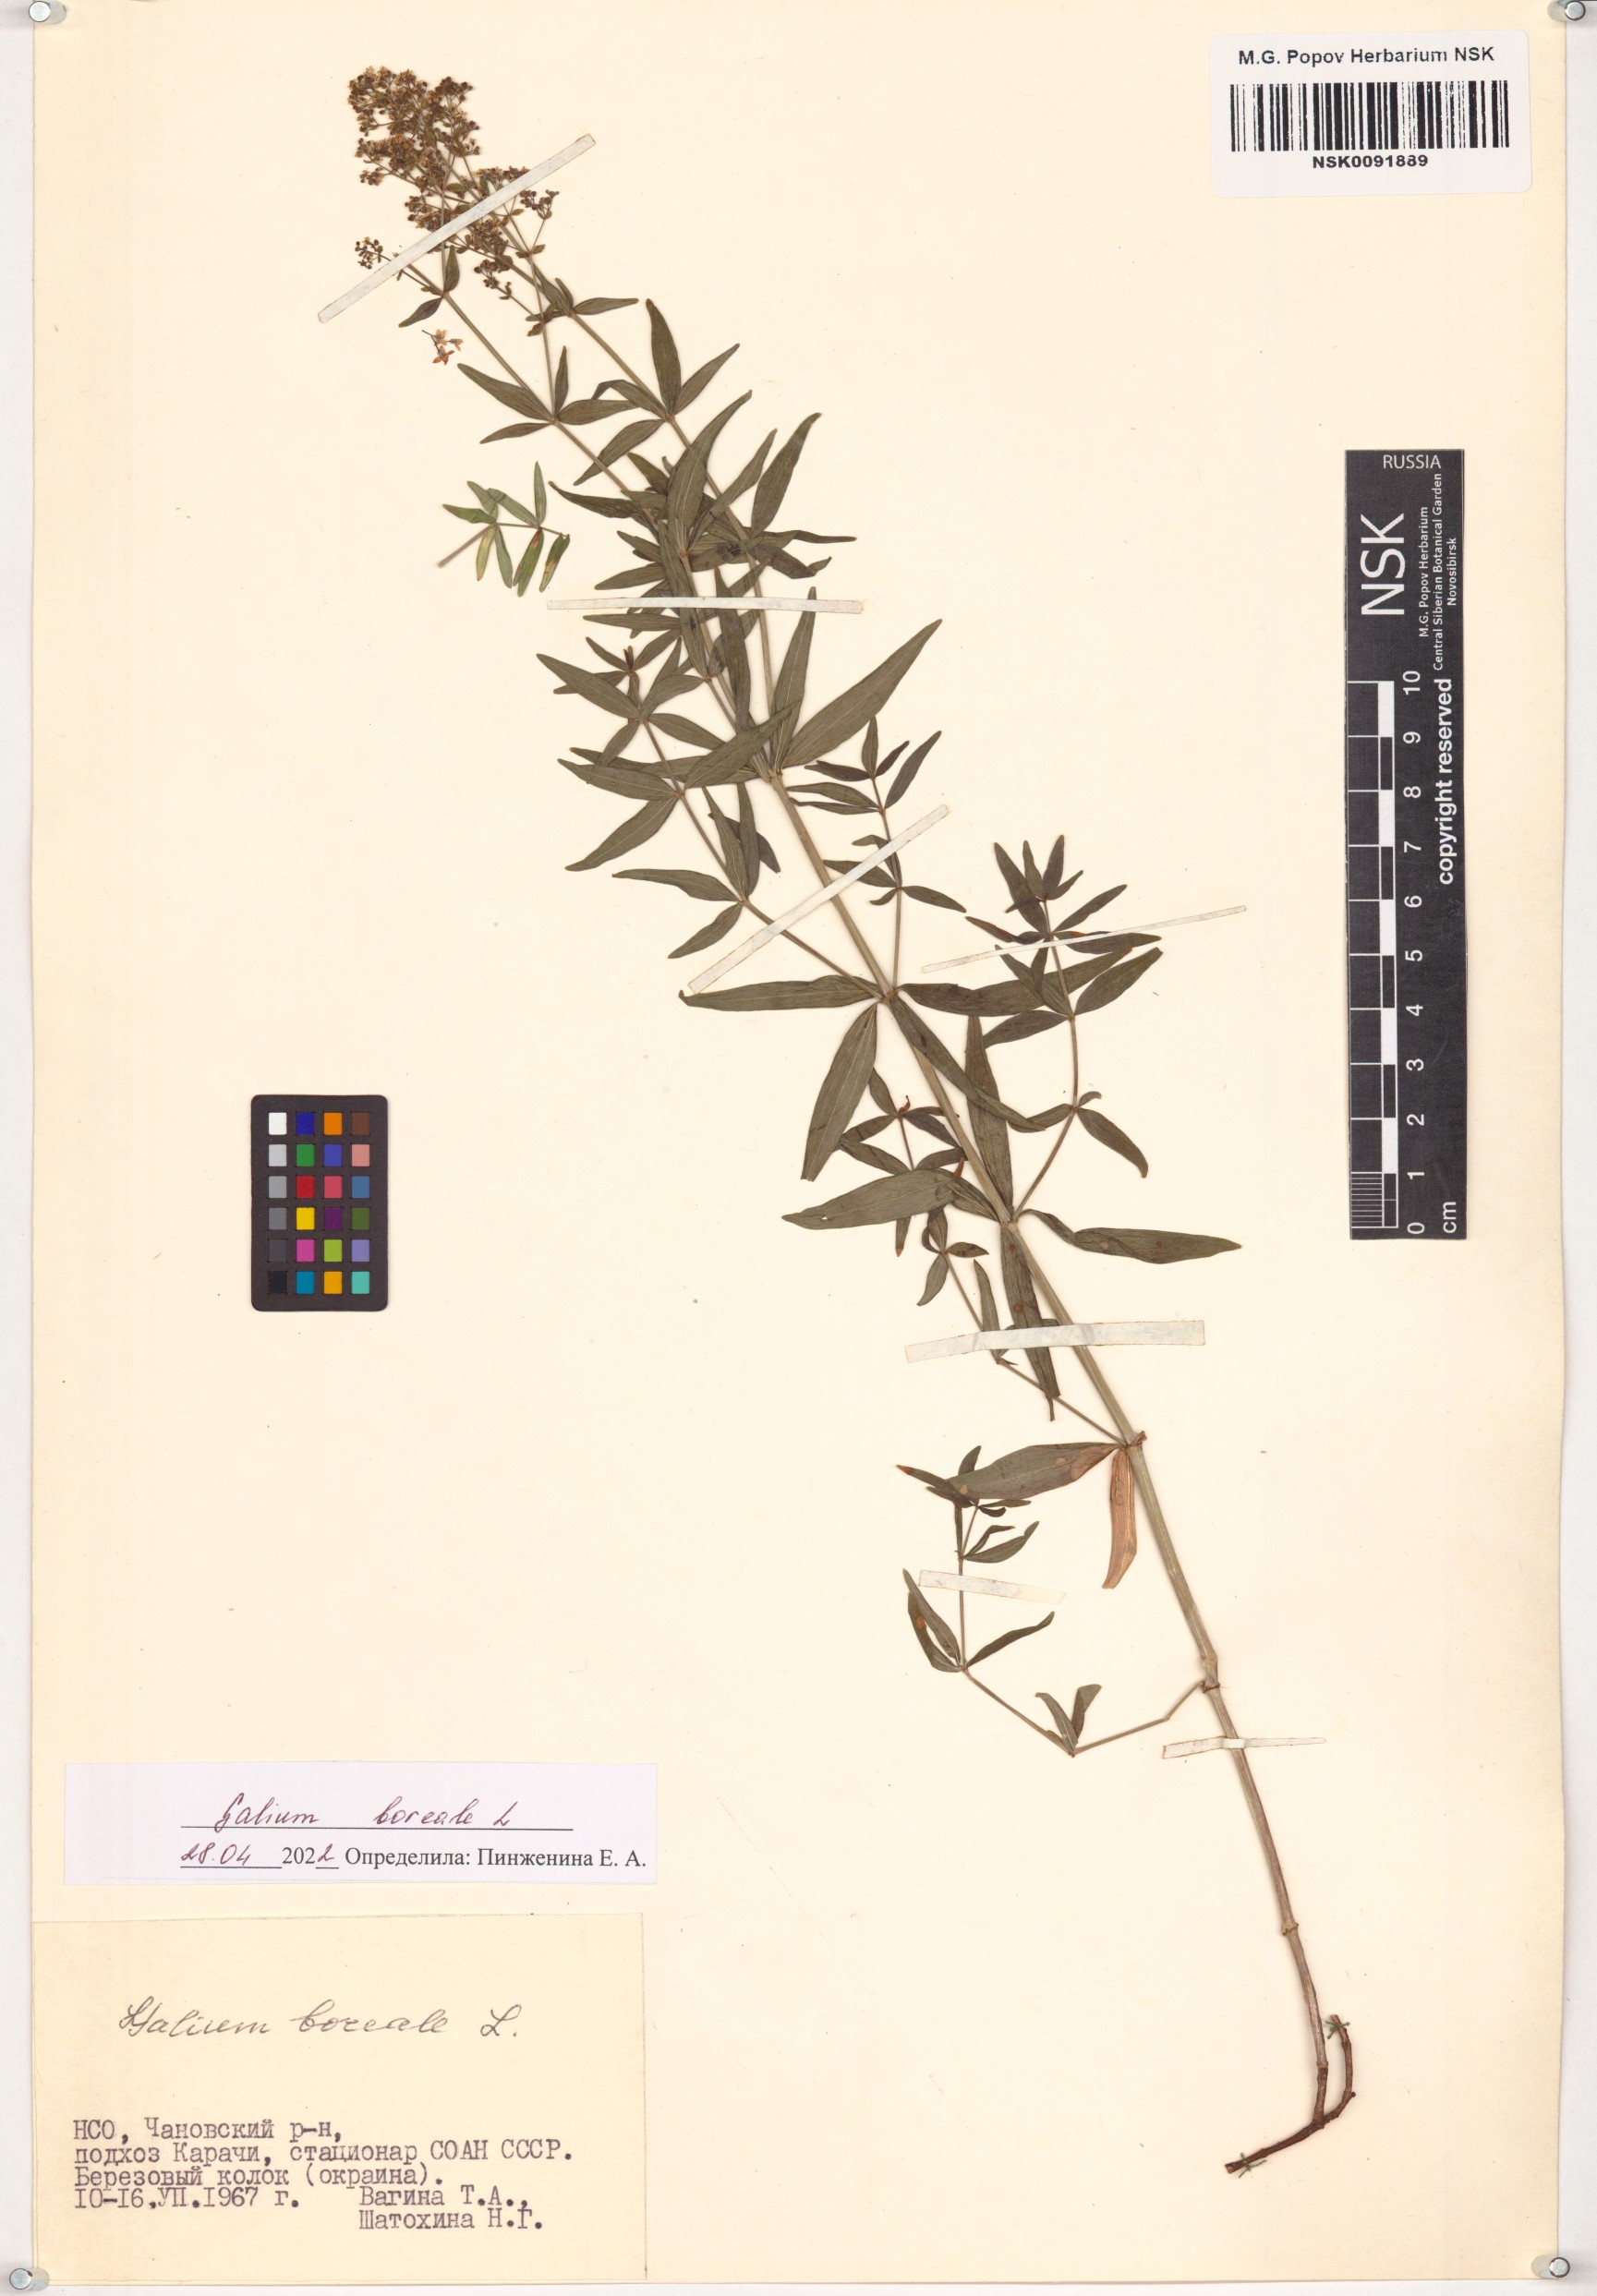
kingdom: Plantae
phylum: Tracheophyta
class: Magnoliopsida
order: Gentianales
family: Rubiaceae
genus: Galium
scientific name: Galium boreale
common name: Northern bedstraw
